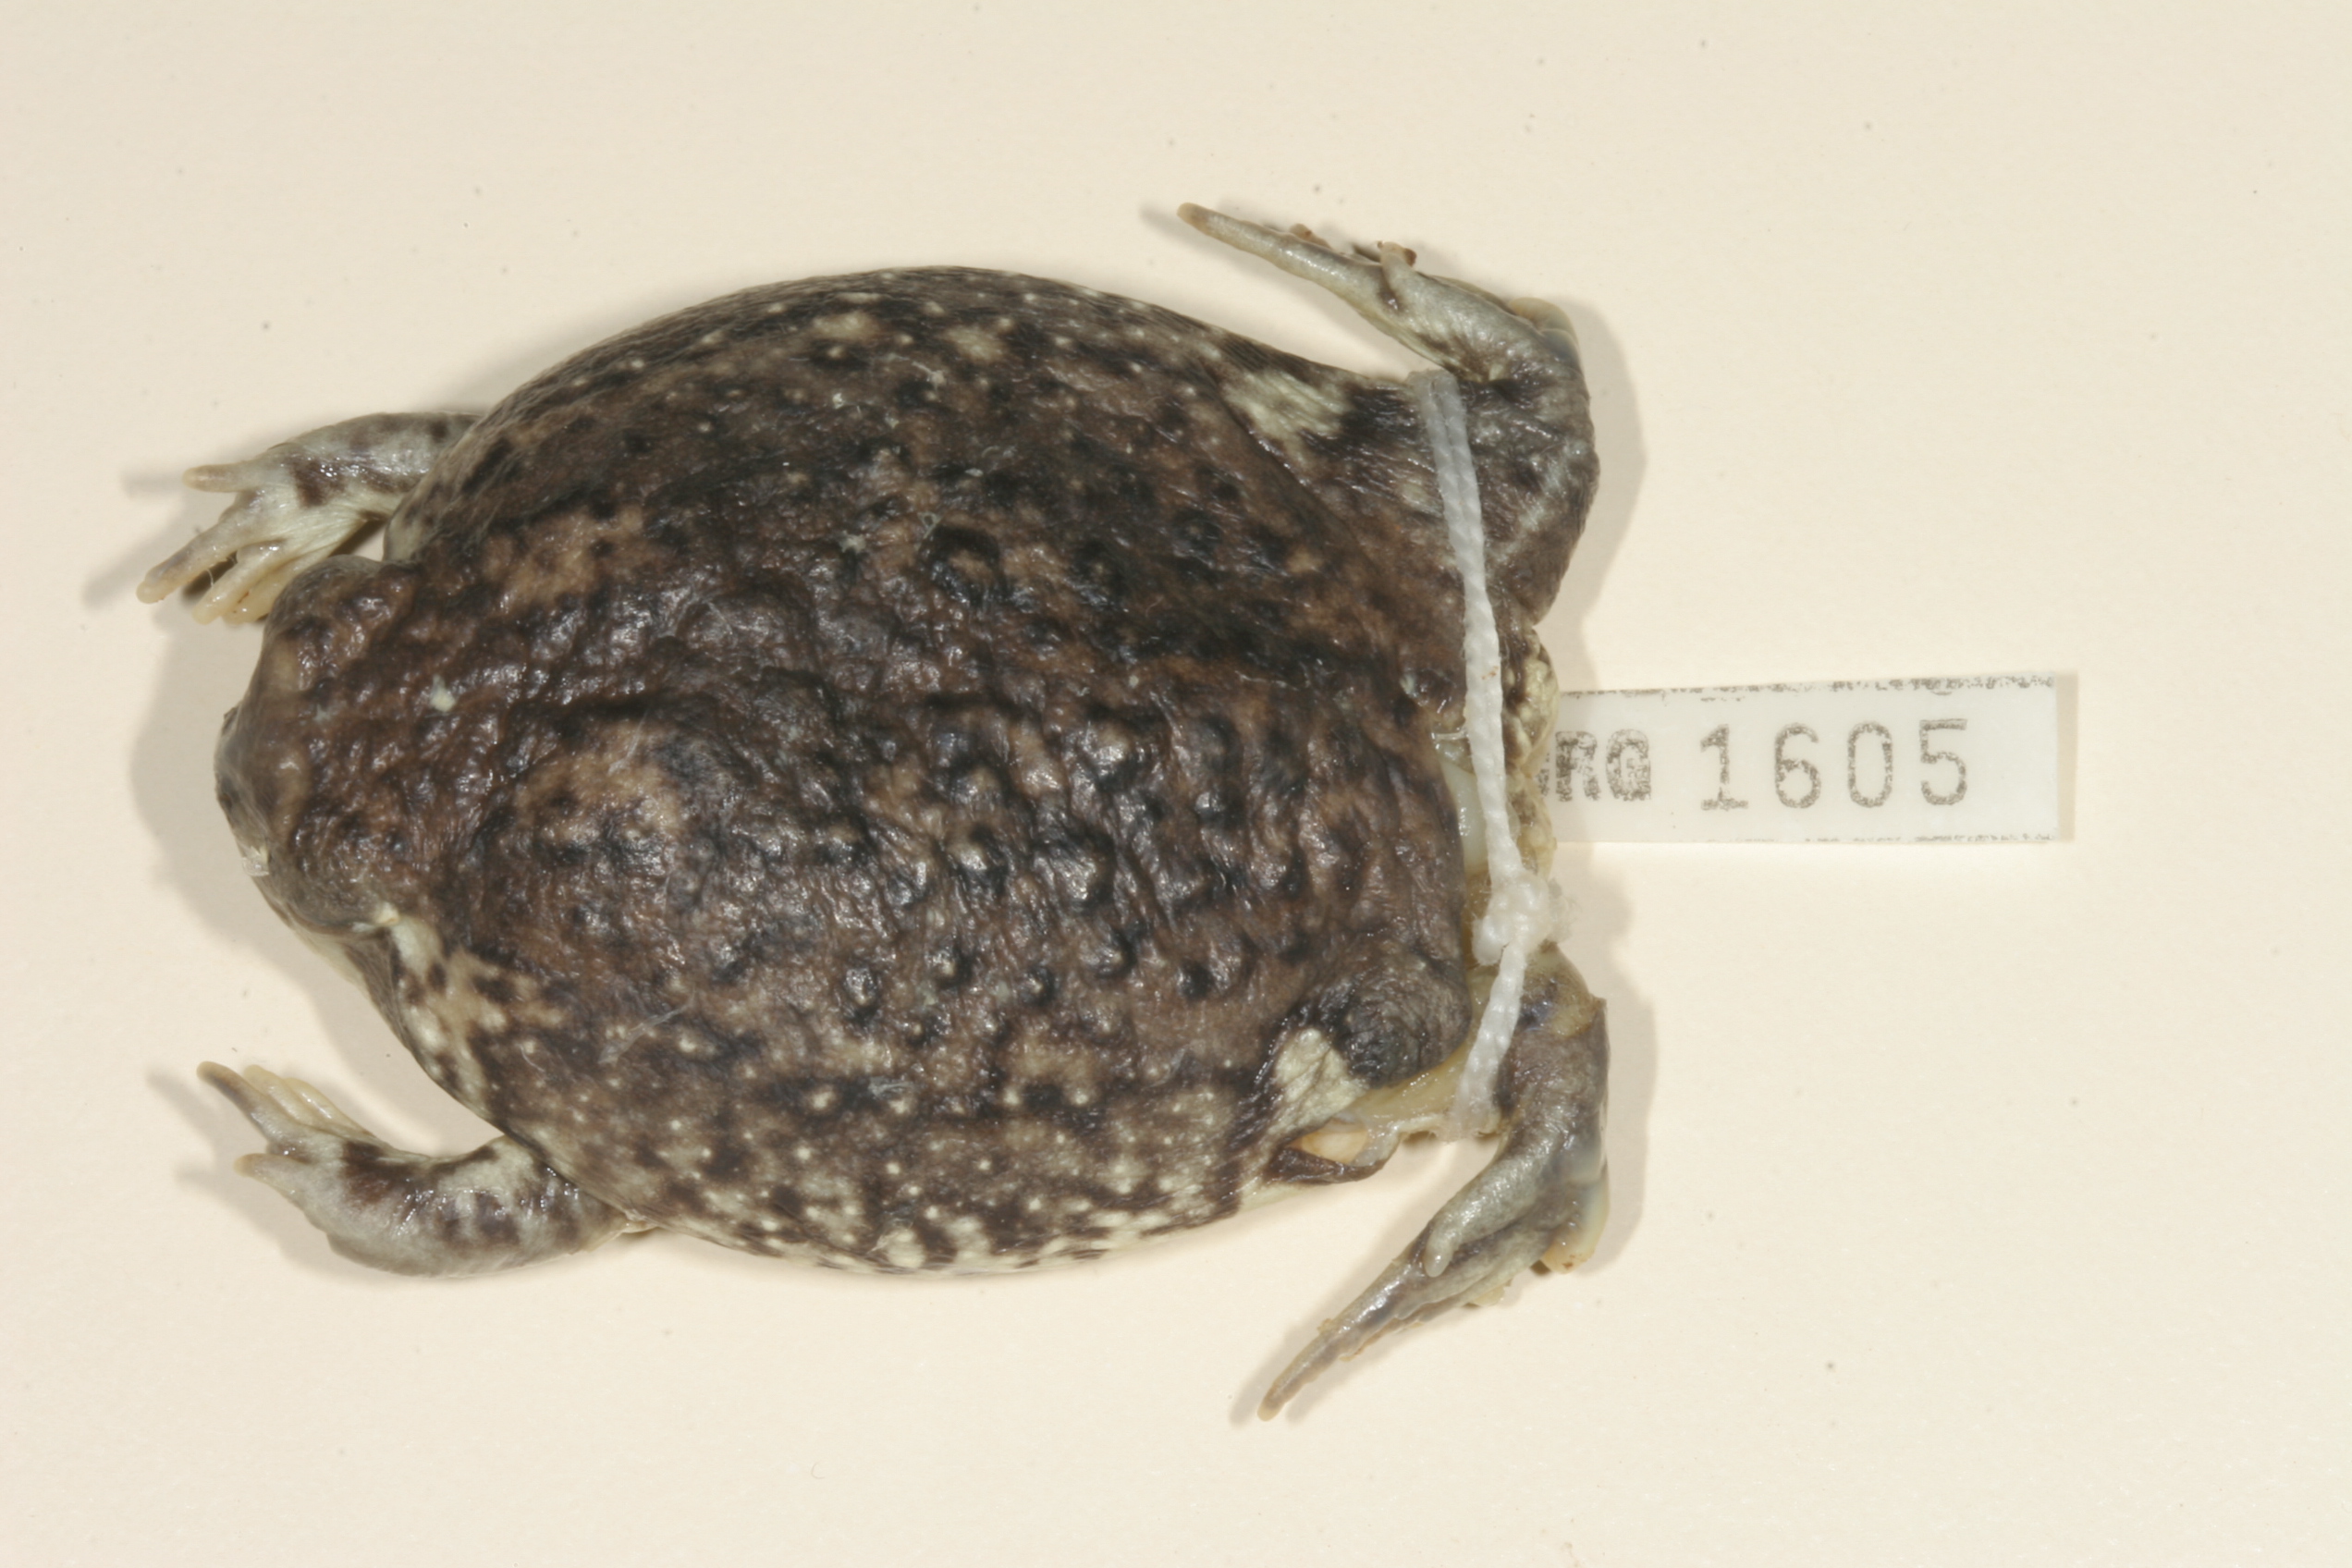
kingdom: Animalia
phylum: Chordata
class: Amphibia
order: Anura
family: Brevicipitidae
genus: Breviceps
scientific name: Breviceps adspersus
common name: Common rain frog
